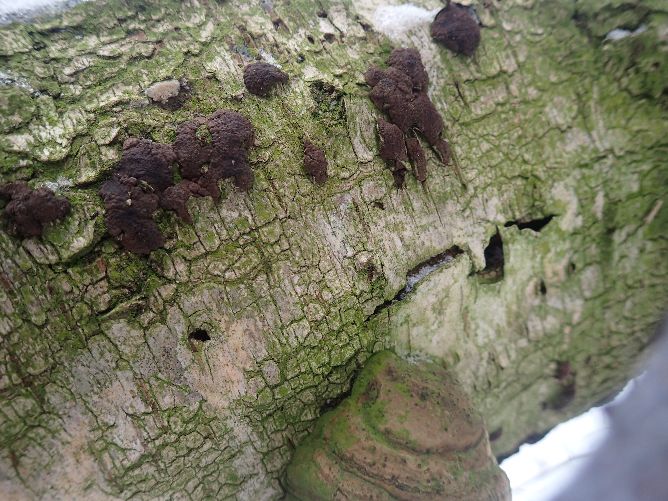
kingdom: Fungi
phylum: Ascomycota
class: Sordariomycetes
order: Xylariales
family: Hypoxylaceae
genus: Jackrogersella
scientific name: Jackrogersella multiformis
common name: foranderlig kulbær
